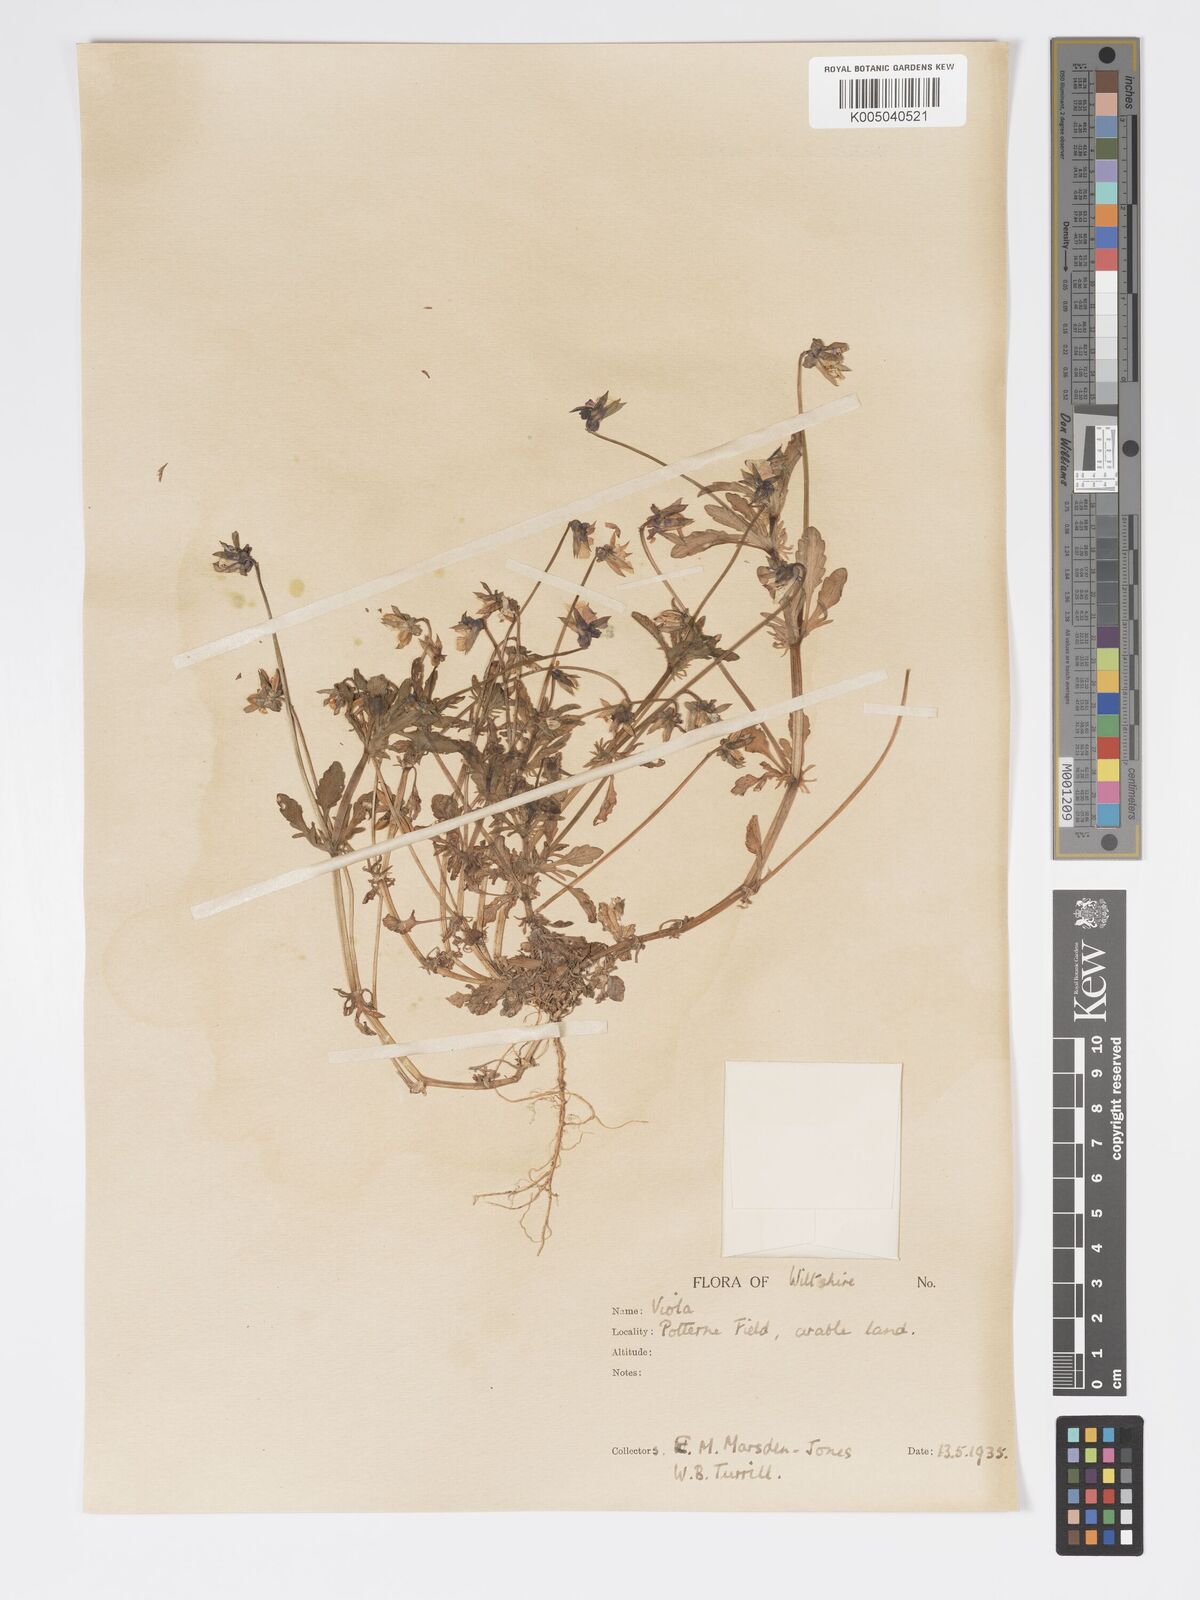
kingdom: Plantae
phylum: Tracheophyta
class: Magnoliopsida
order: Malpighiales
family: Violaceae
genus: Viola
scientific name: Viola
